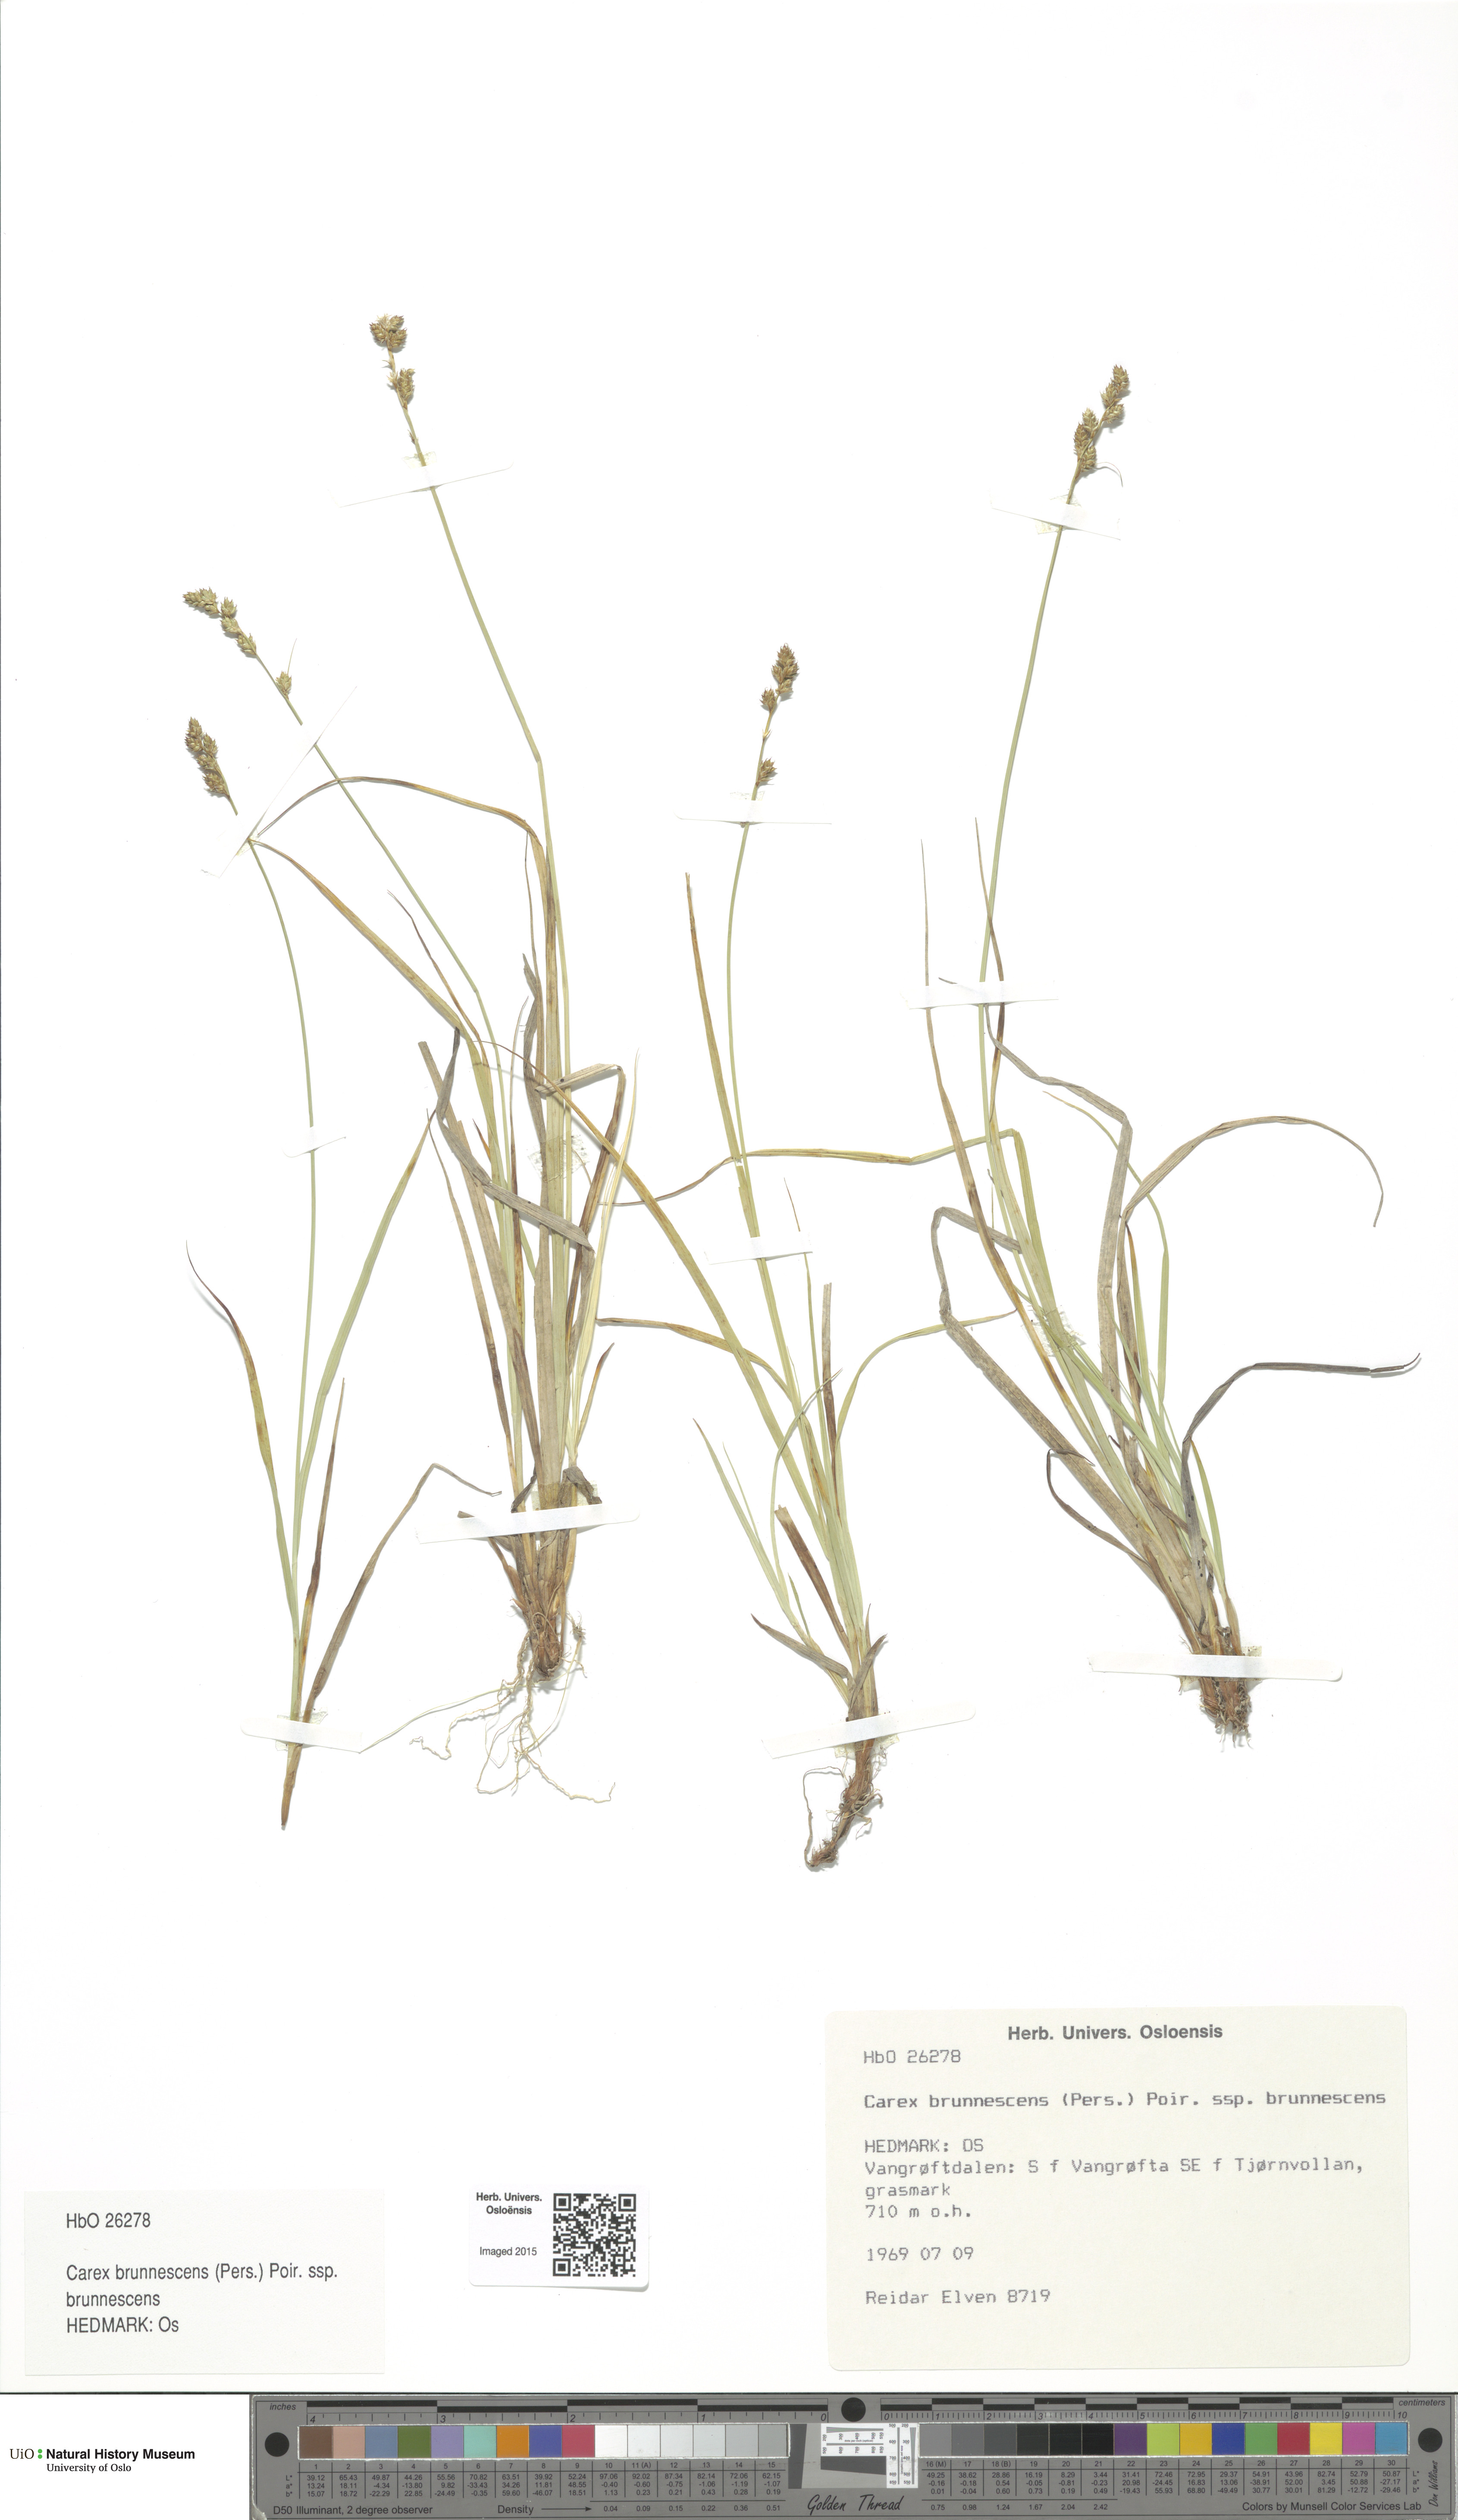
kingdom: Plantae
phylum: Tracheophyta
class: Liliopsida
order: Poales
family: Cyperaceae
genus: Carex
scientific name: Carex brunnescens
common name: Brown sedge
